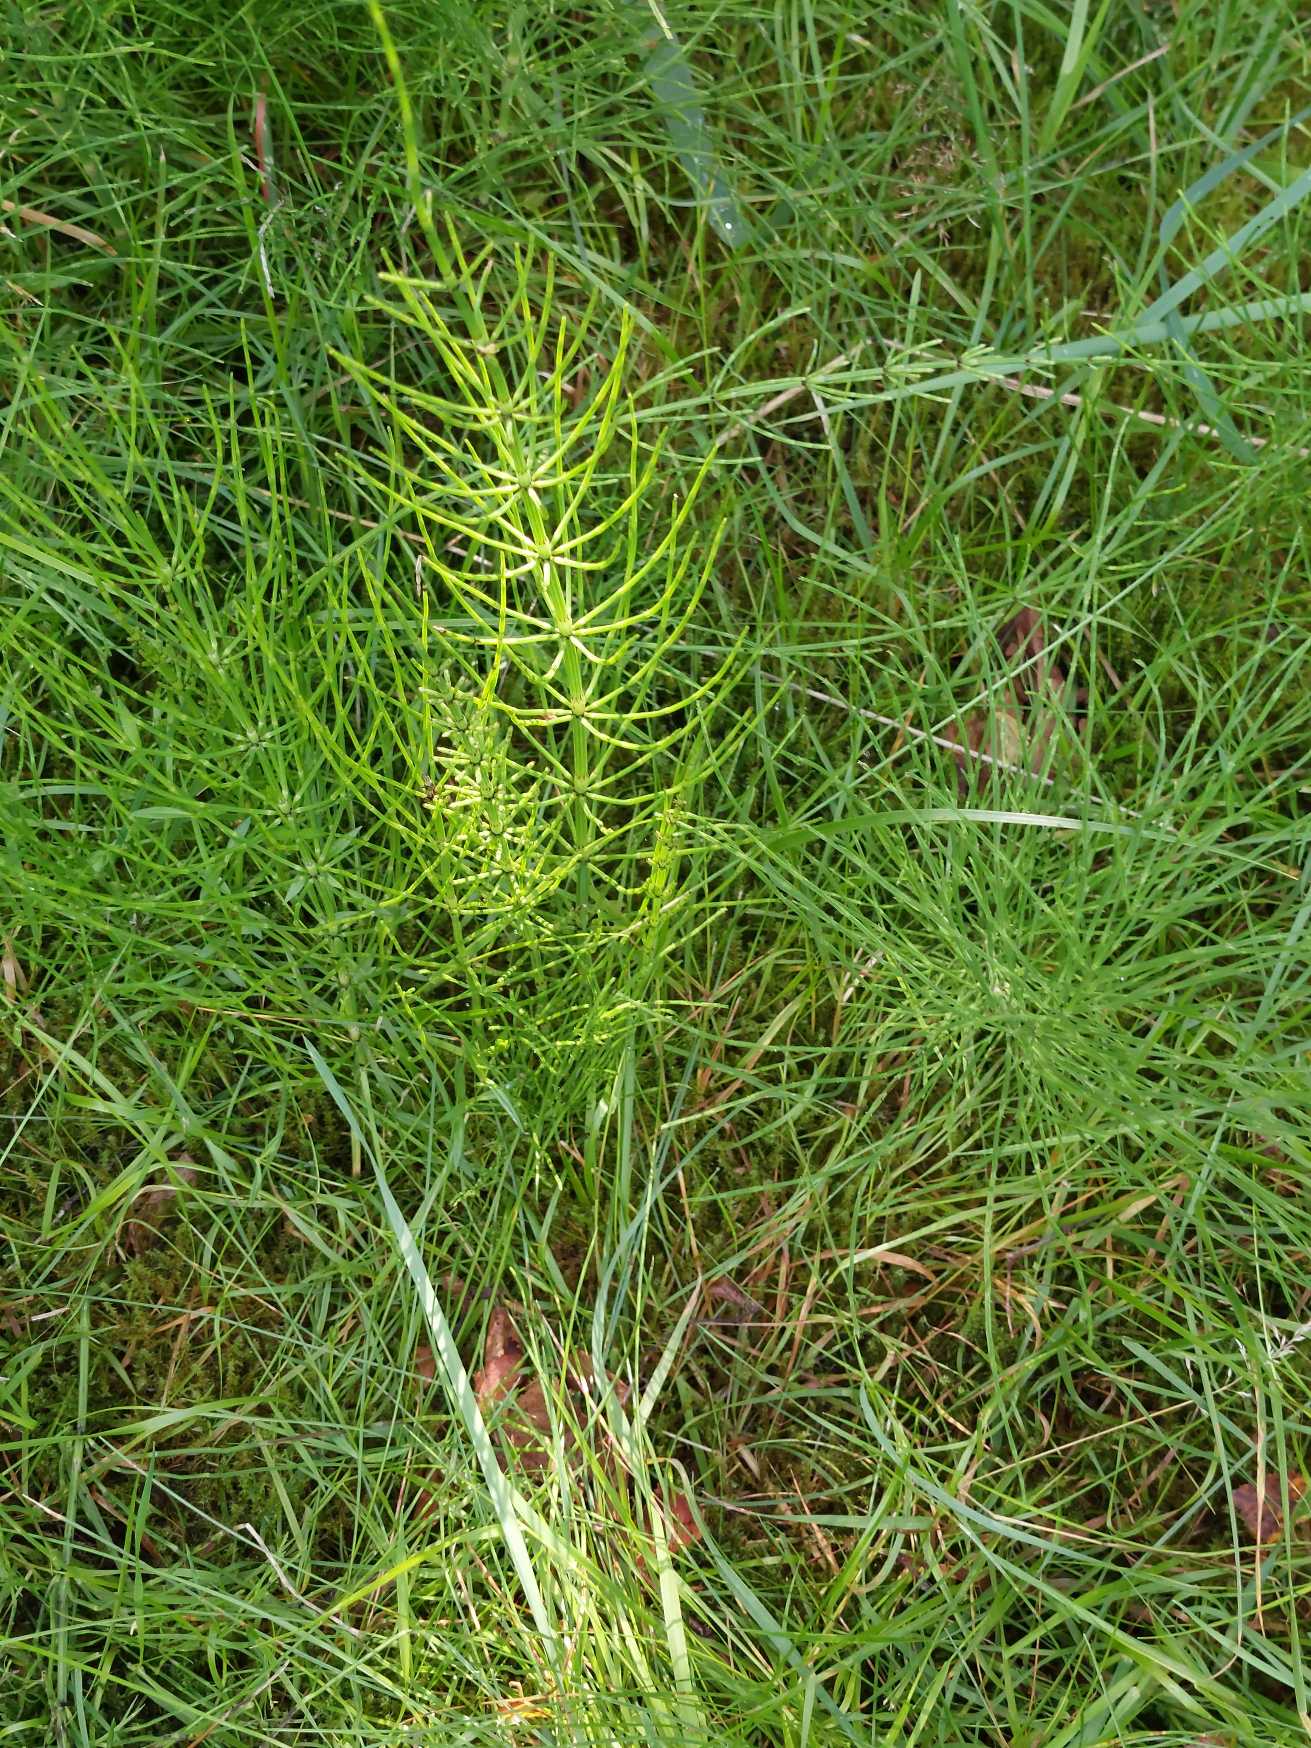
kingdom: Plantae
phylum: Tracheophyta
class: Polypodiopsida
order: Equisetales
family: Equisetaceae
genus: Equisetum
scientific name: Equisetum arvense
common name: Ager-padderok
